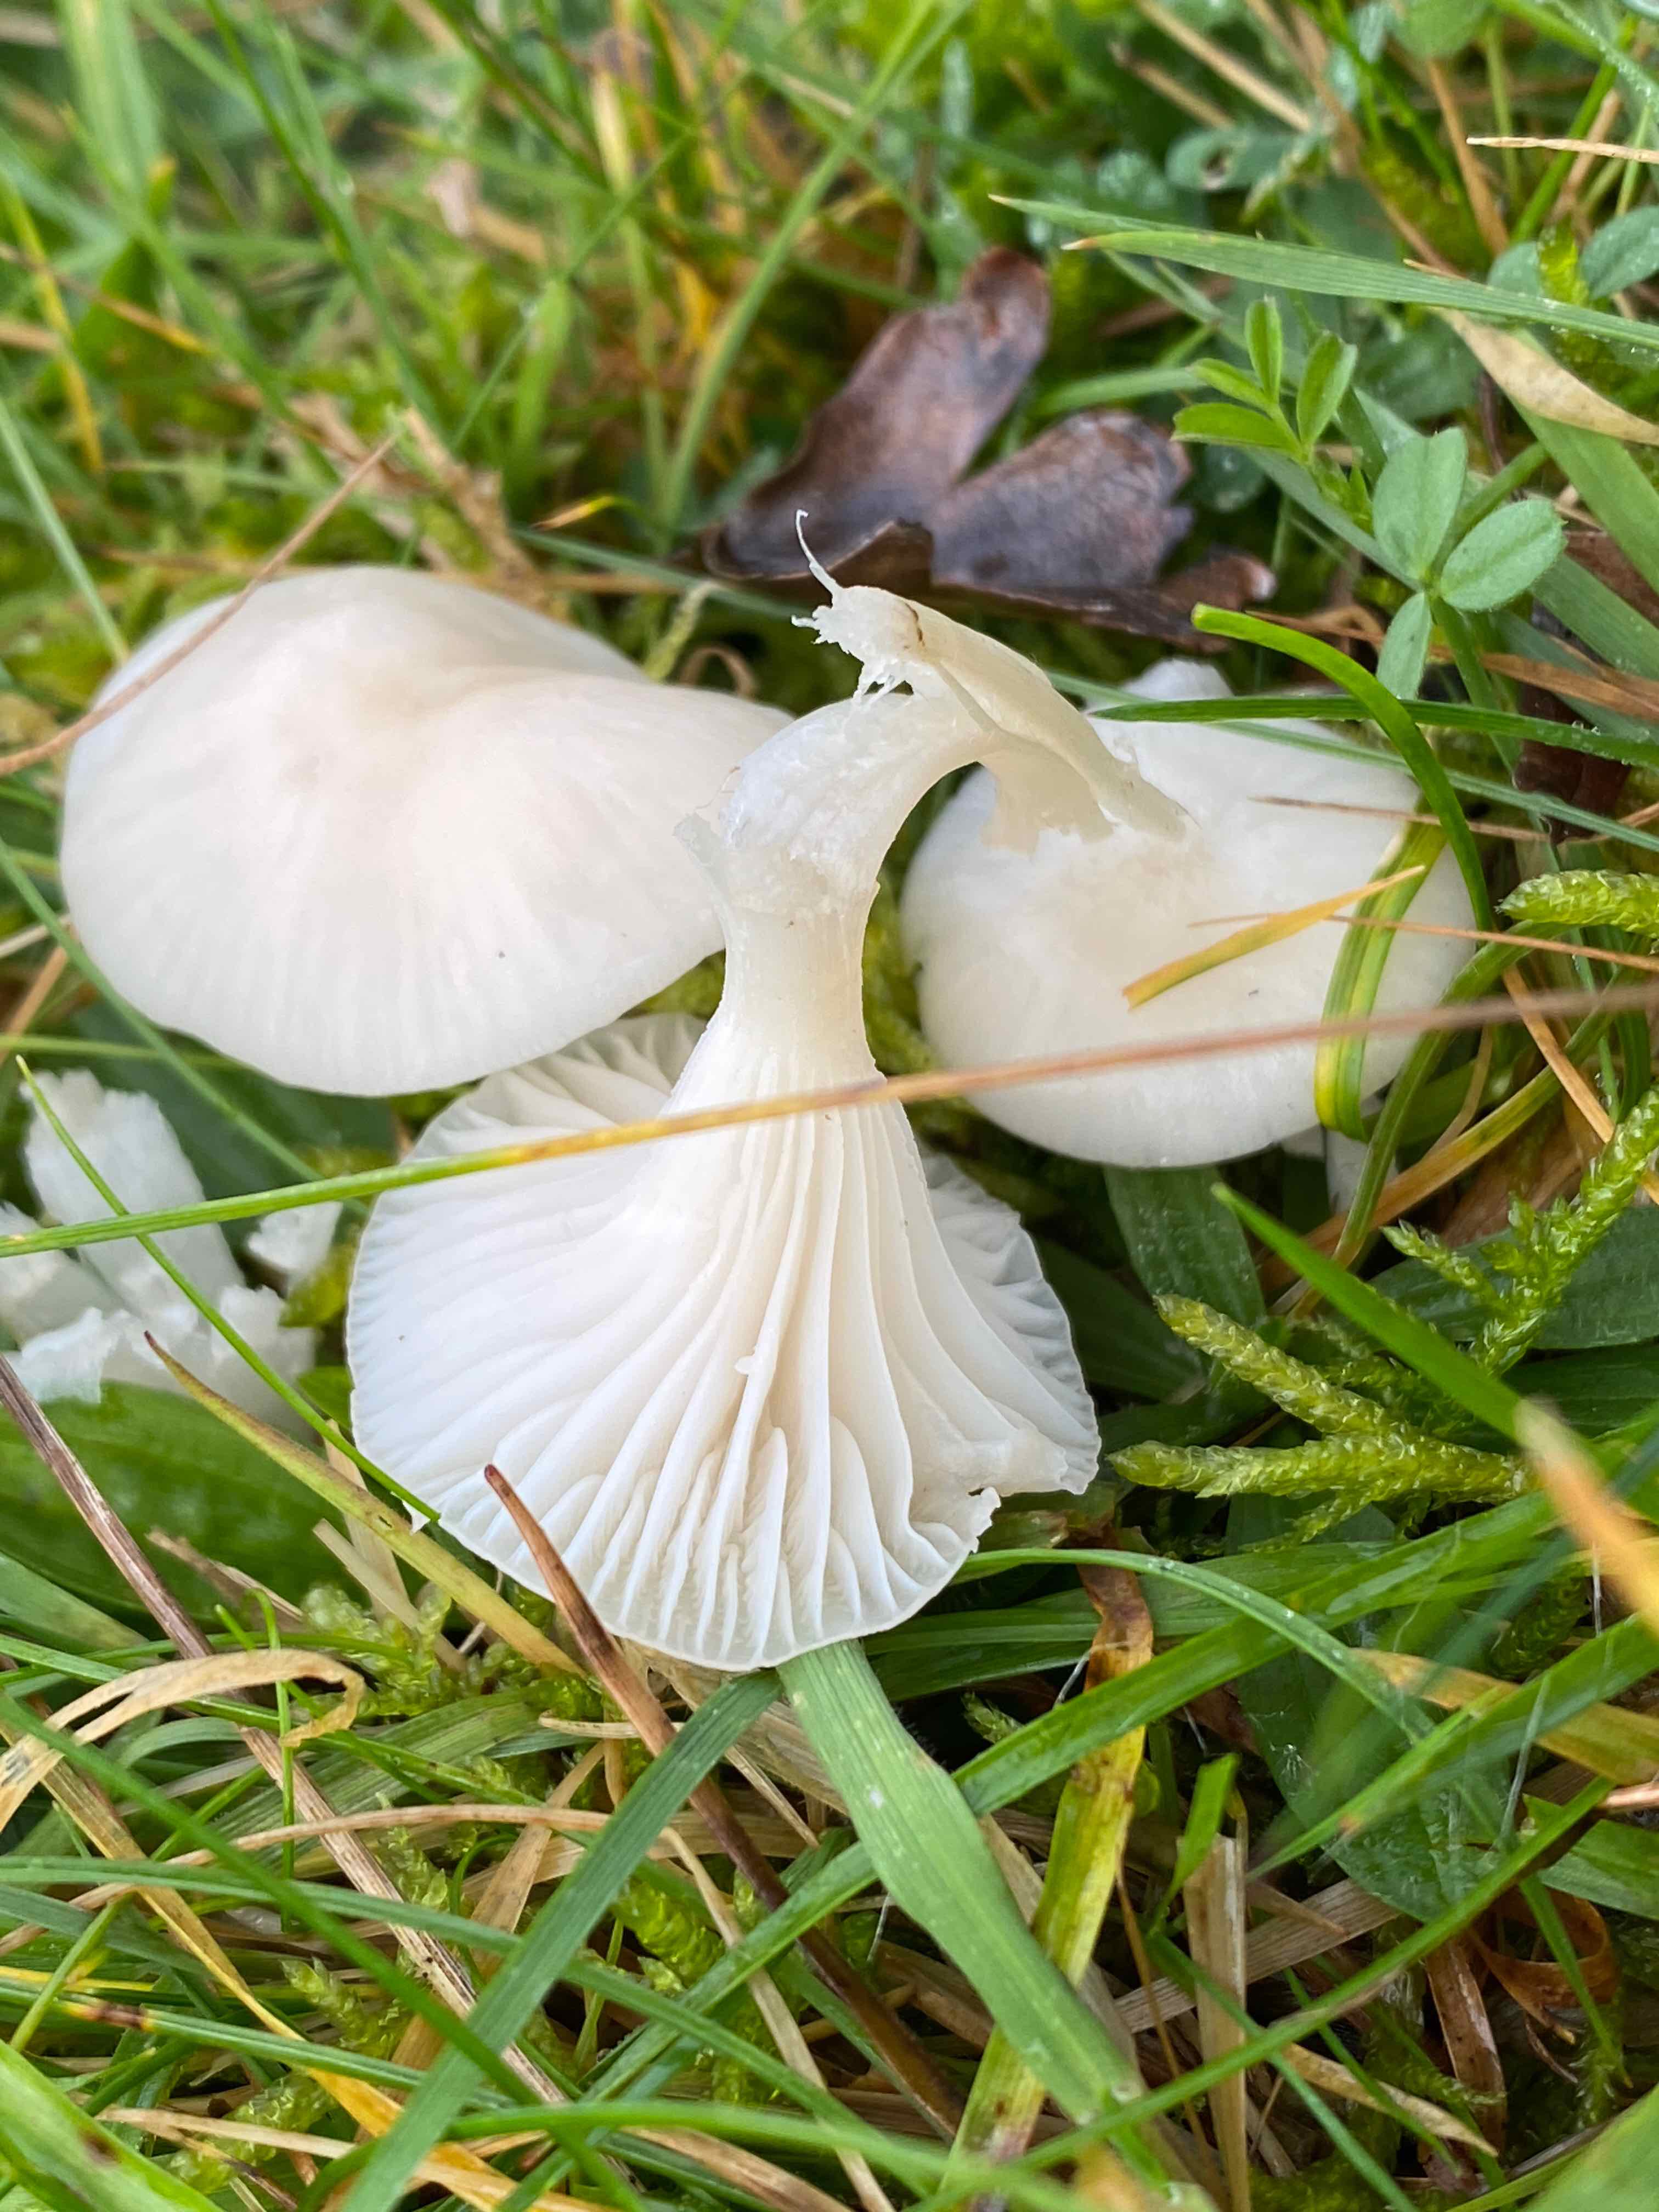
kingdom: Fungi
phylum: Basidiomycota
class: Agaricomycetes
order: Agaricales
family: Hygrophoraceae
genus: Cuphophyllus
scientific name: Cuphophyllus virgineus
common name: snehvid vokshat
